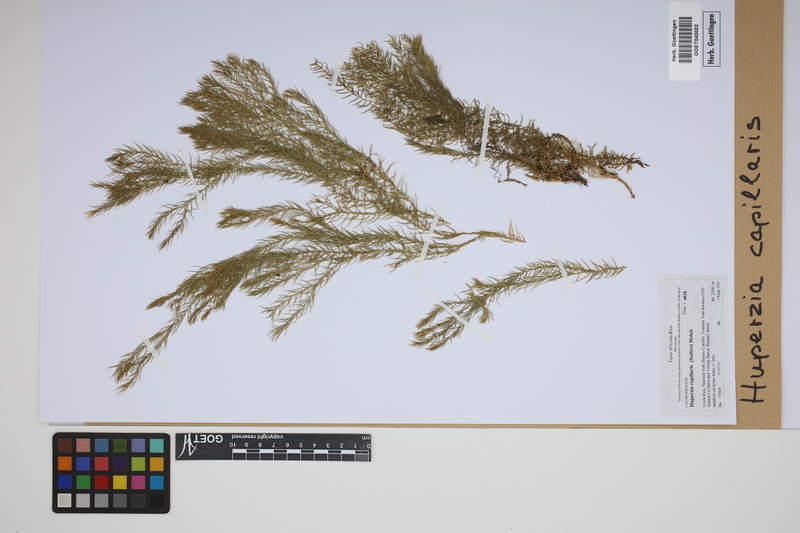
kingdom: Plantae
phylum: Tracheophyta
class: Lycopodiopsida
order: Lycopodiales
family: Lycopodiaceae
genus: Phlegmariurus
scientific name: Phlegmariurus capillaris
